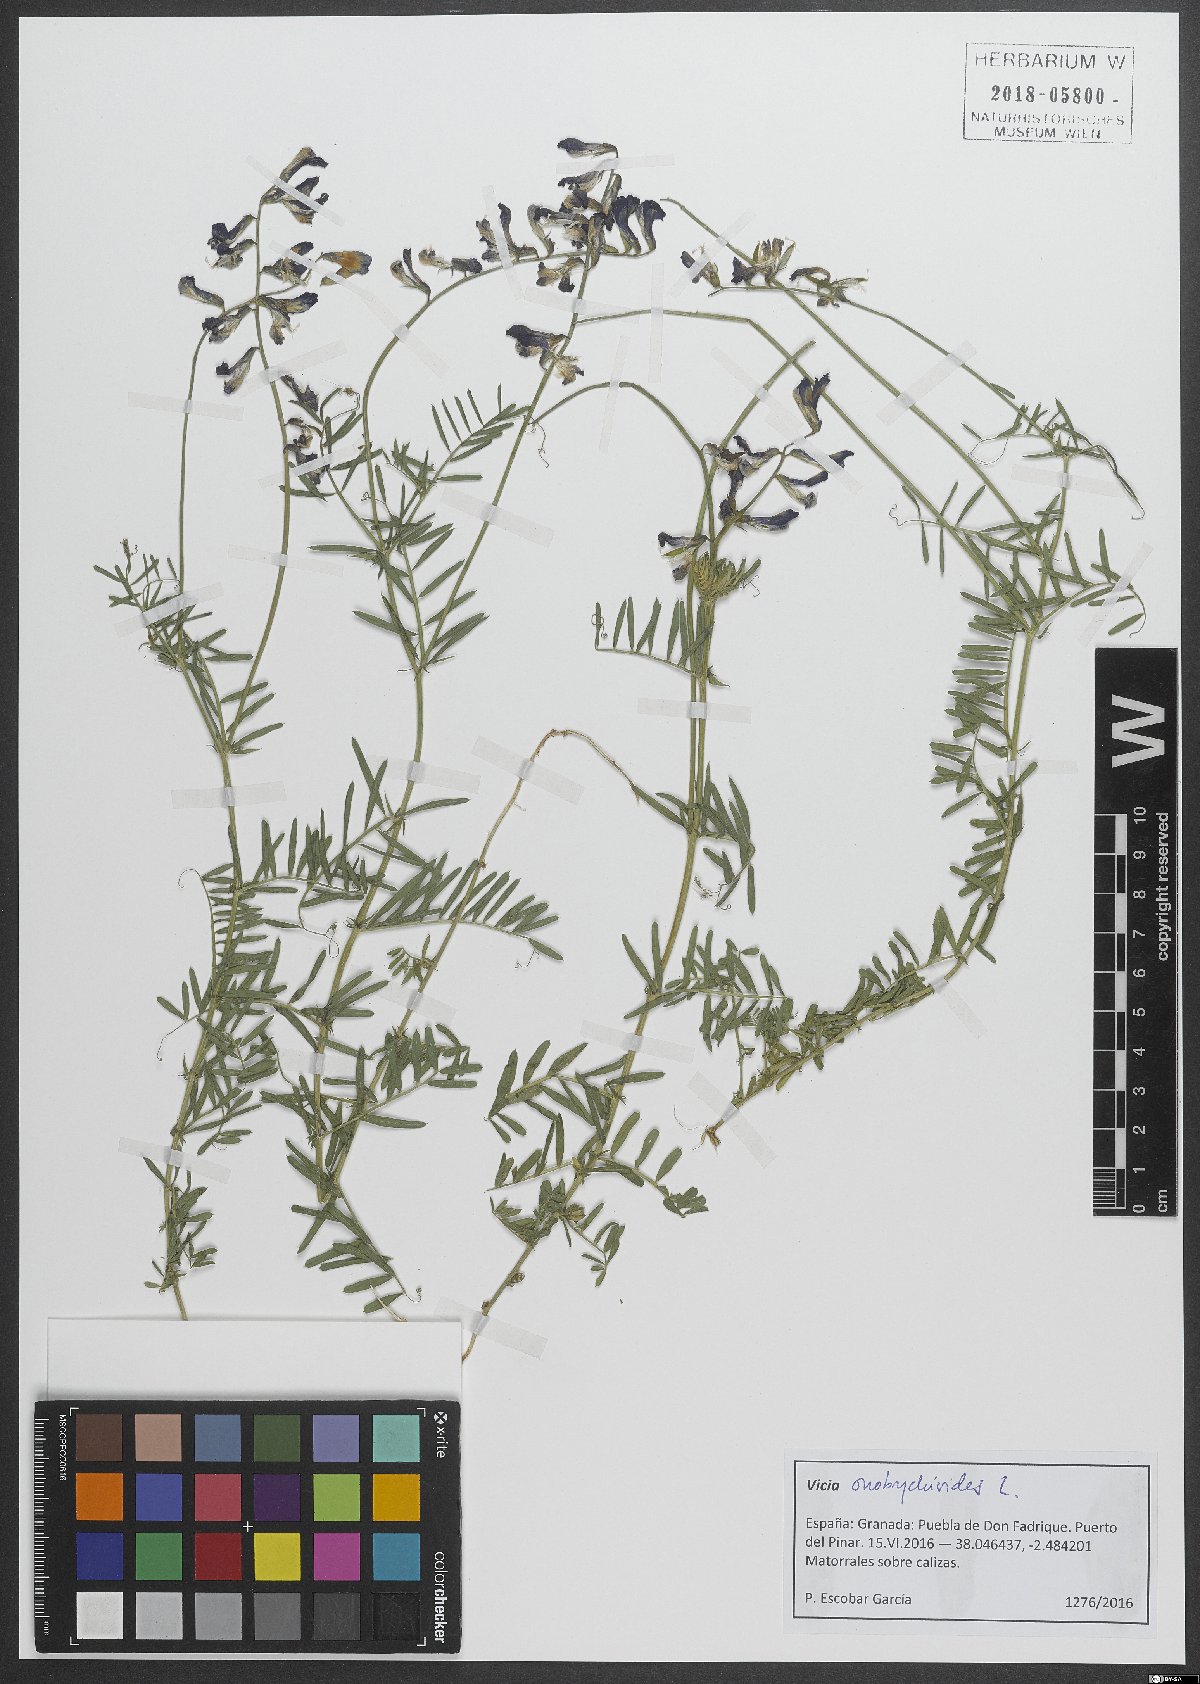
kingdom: Plantae
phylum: Tracheophyta
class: Magnoliopsida
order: Fabales
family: Fabaceae
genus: Vicia
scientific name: Vicia onobrychioides
